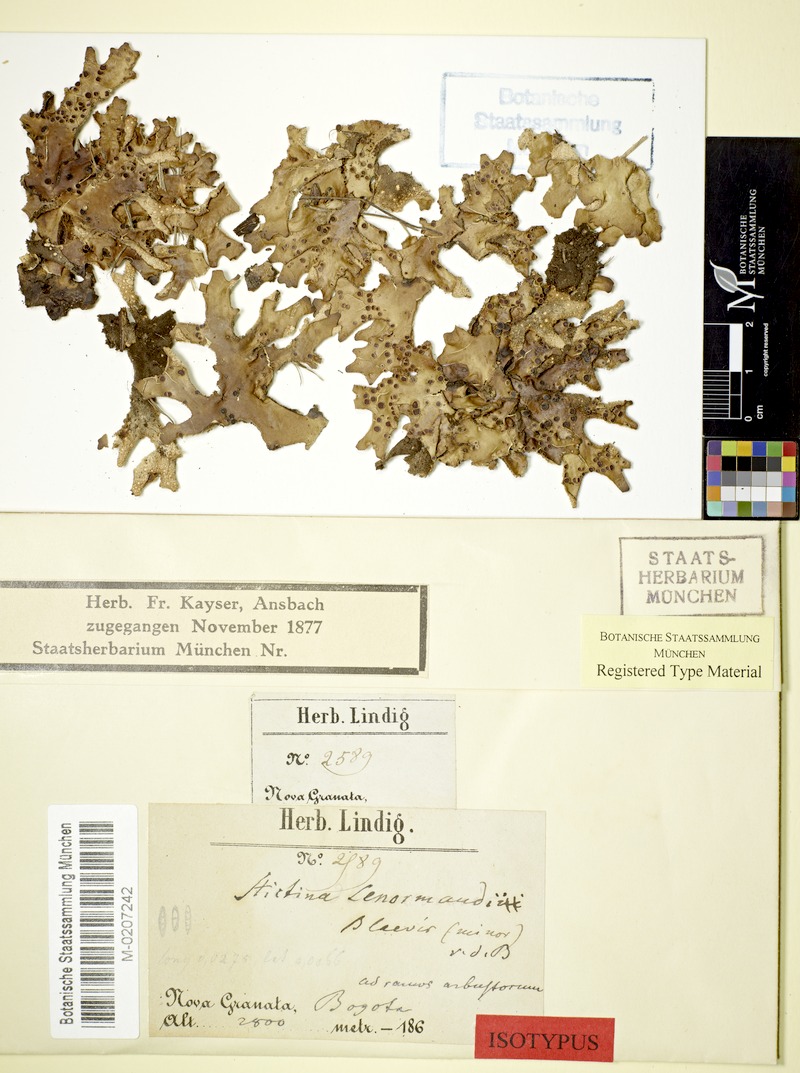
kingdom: Fungi
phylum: Ascomycota
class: Lecanoromycetes
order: Peltigerales
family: Lobariaceae
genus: Sticta
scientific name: Sticta laevis
